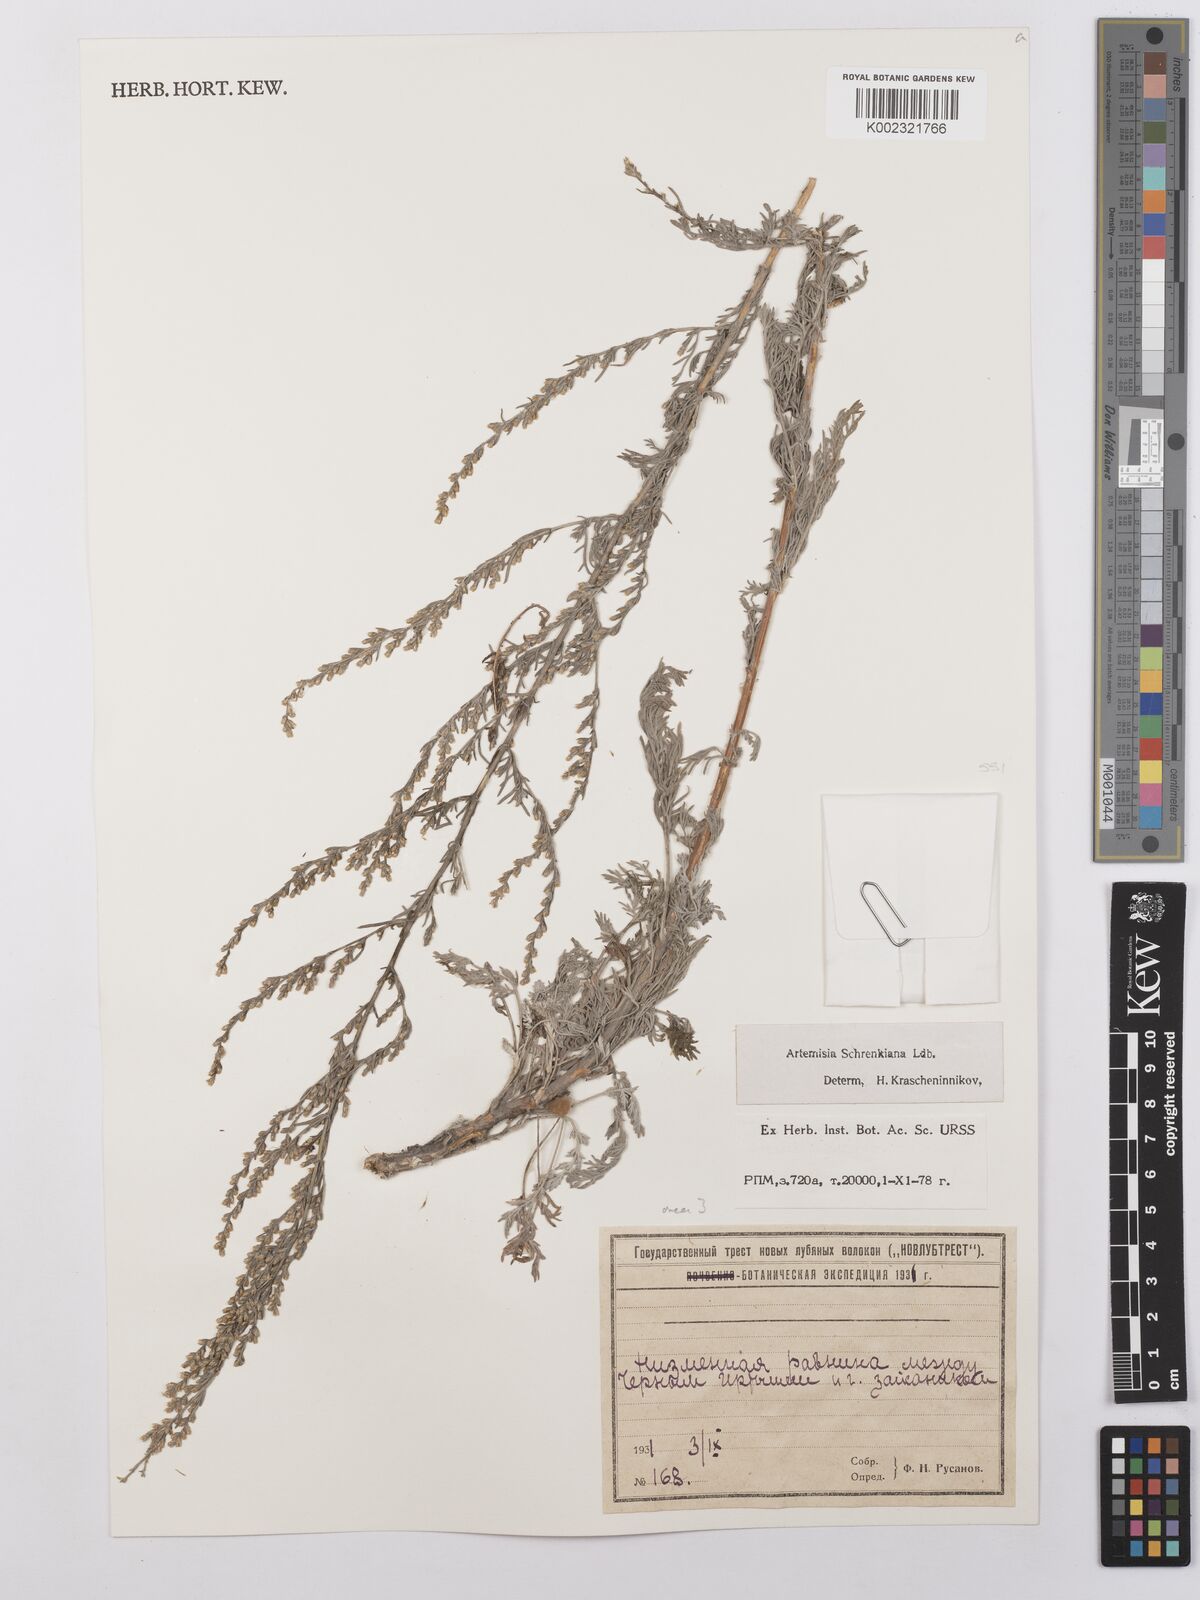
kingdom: Plantae
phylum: Tracheophyta
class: Magnoliopsida
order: Asterales
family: Asteraceae
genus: Artemisia
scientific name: Artemisia schrenkiana
